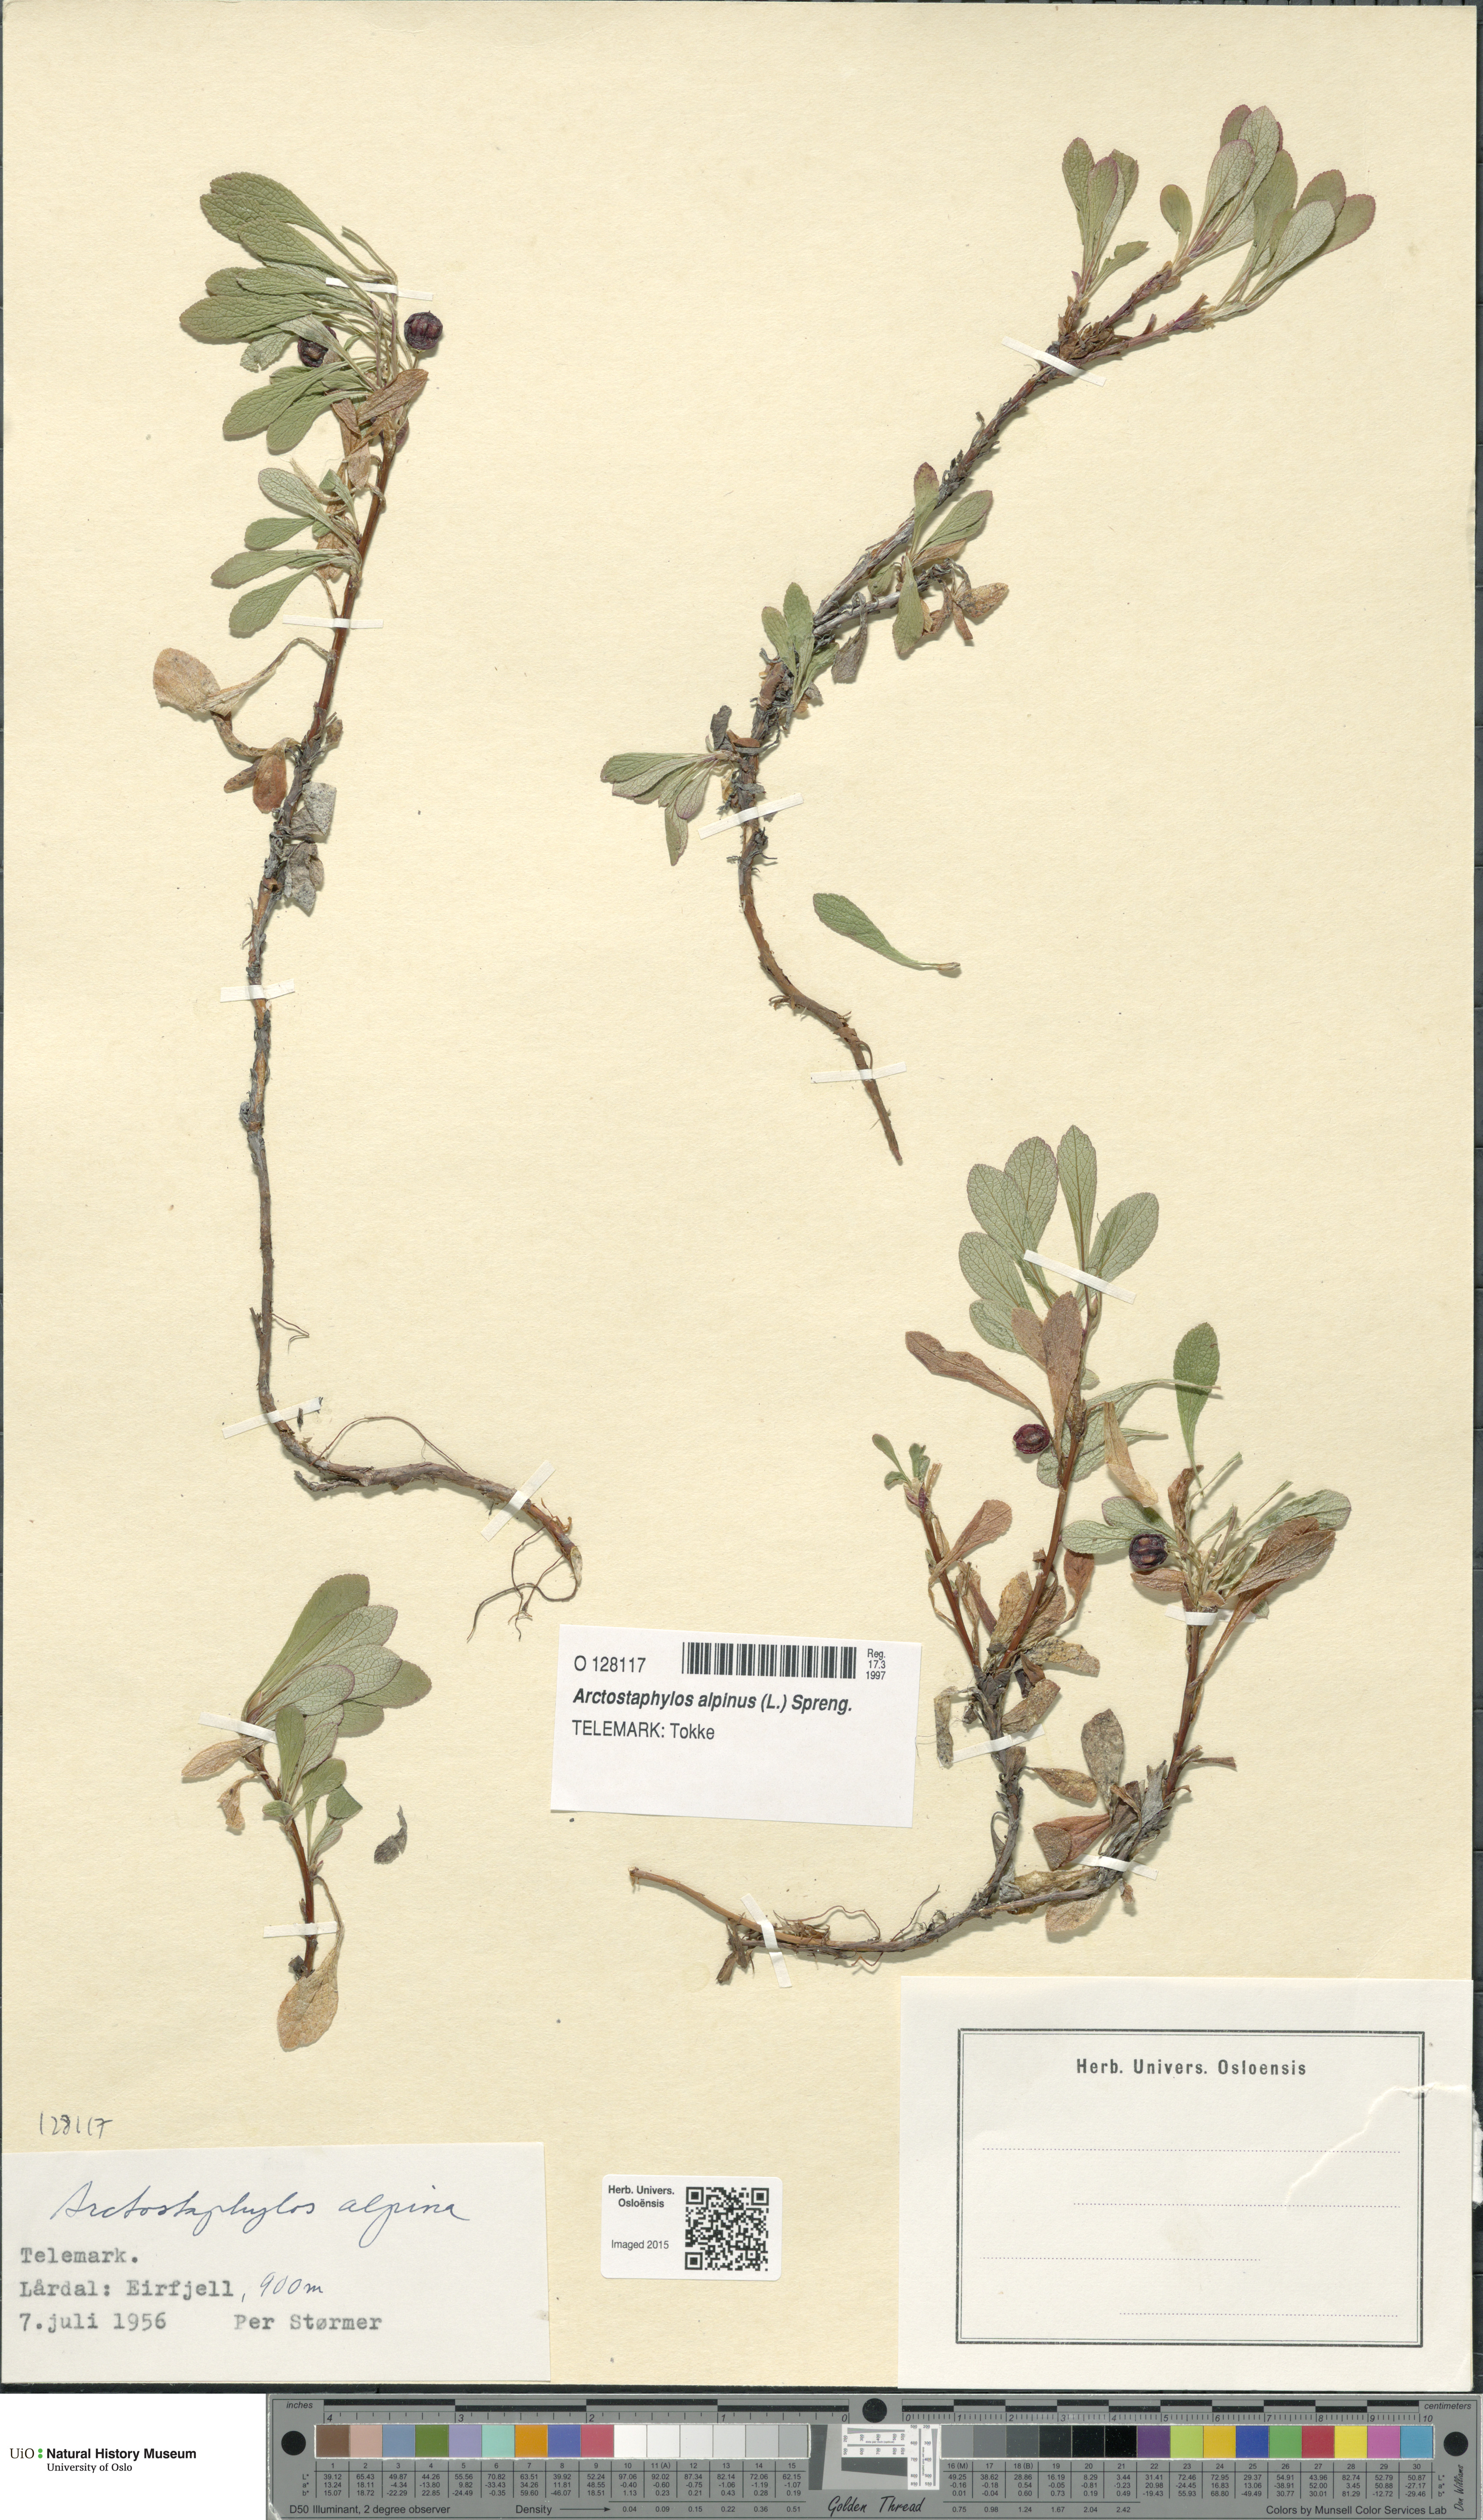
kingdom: Plantae
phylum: Tracheophyta
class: Magnoliopsida
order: Ericales
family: Ericaceae
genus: Arctostaphylos
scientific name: Arctostaphylos alpinus
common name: Alpine bearberry
